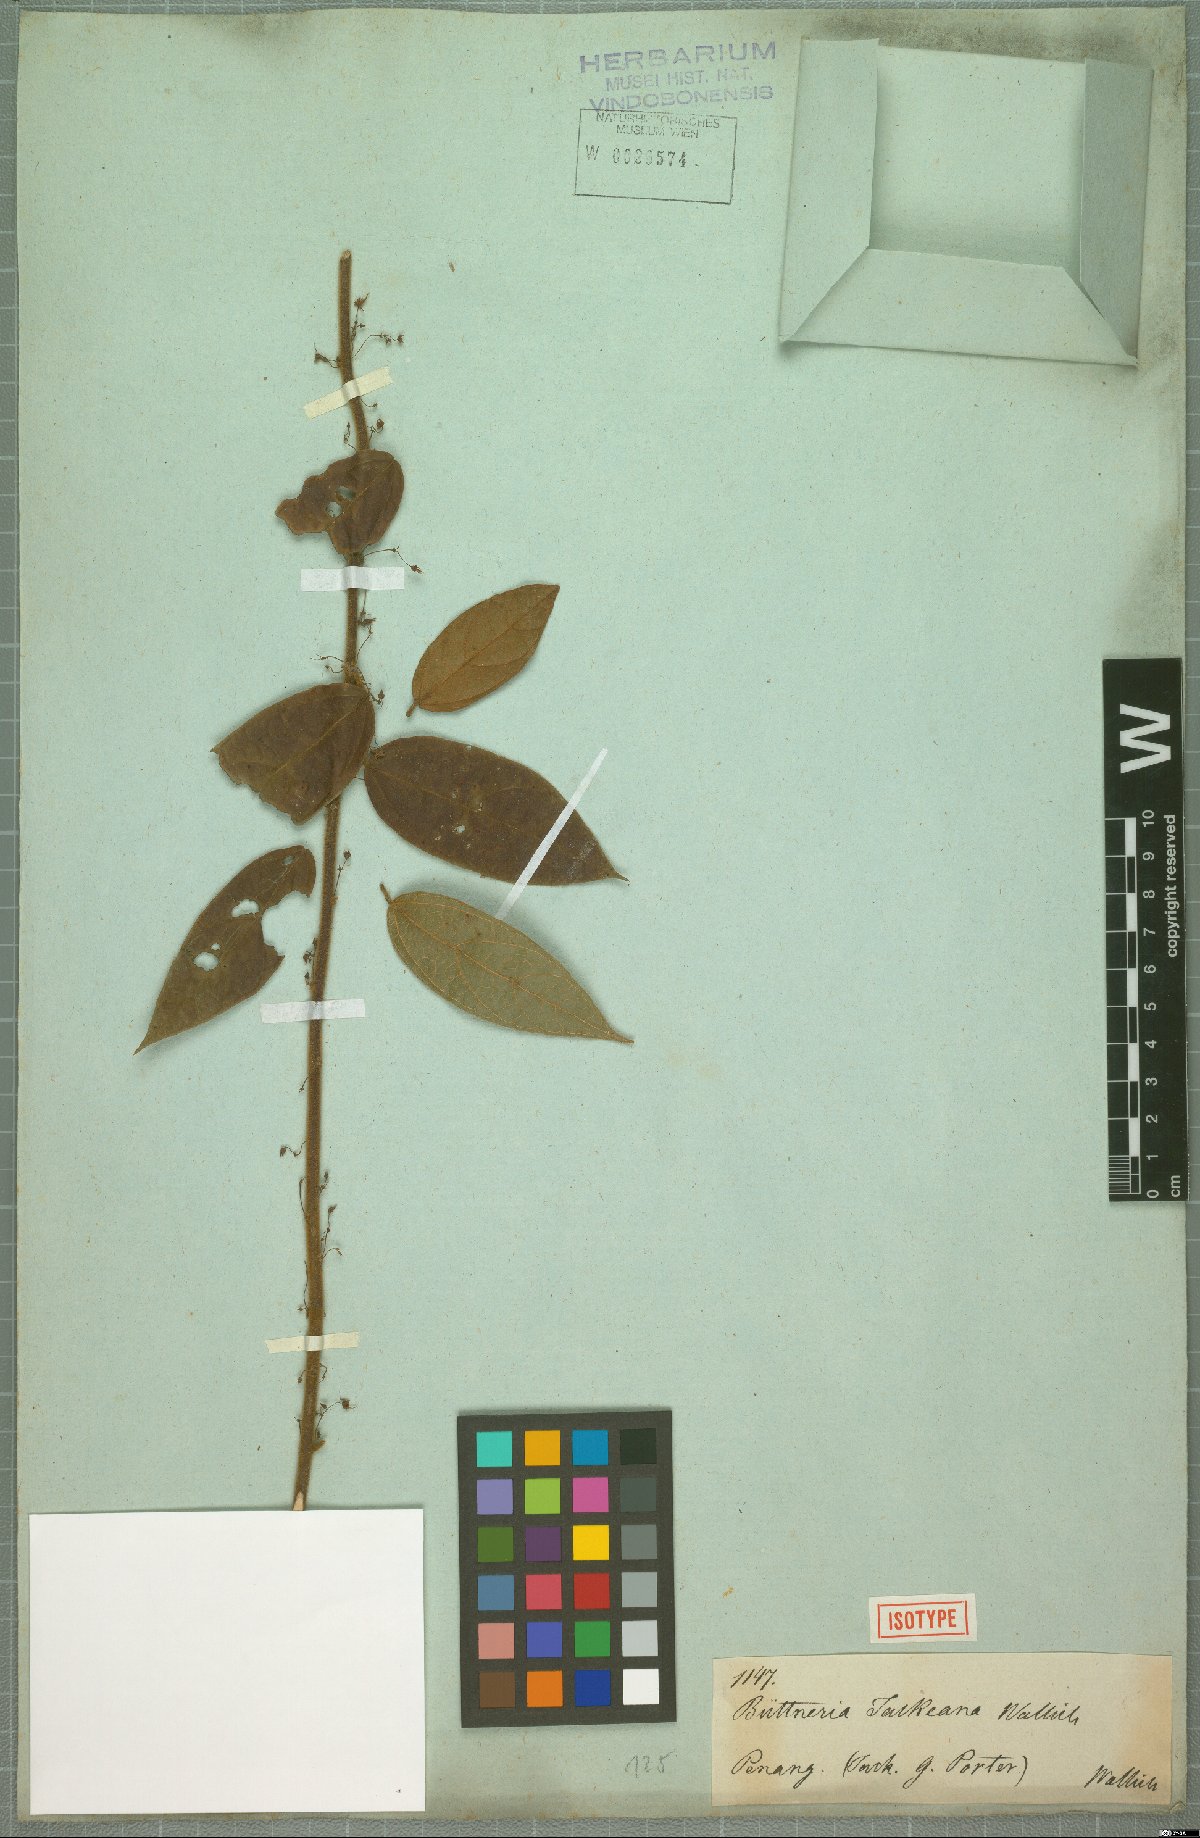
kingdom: Plantae
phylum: Tracheophyta
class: Magnoliopsida
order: Malvales
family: Malvaceae
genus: Byttneria
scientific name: Byttneria jackiana
